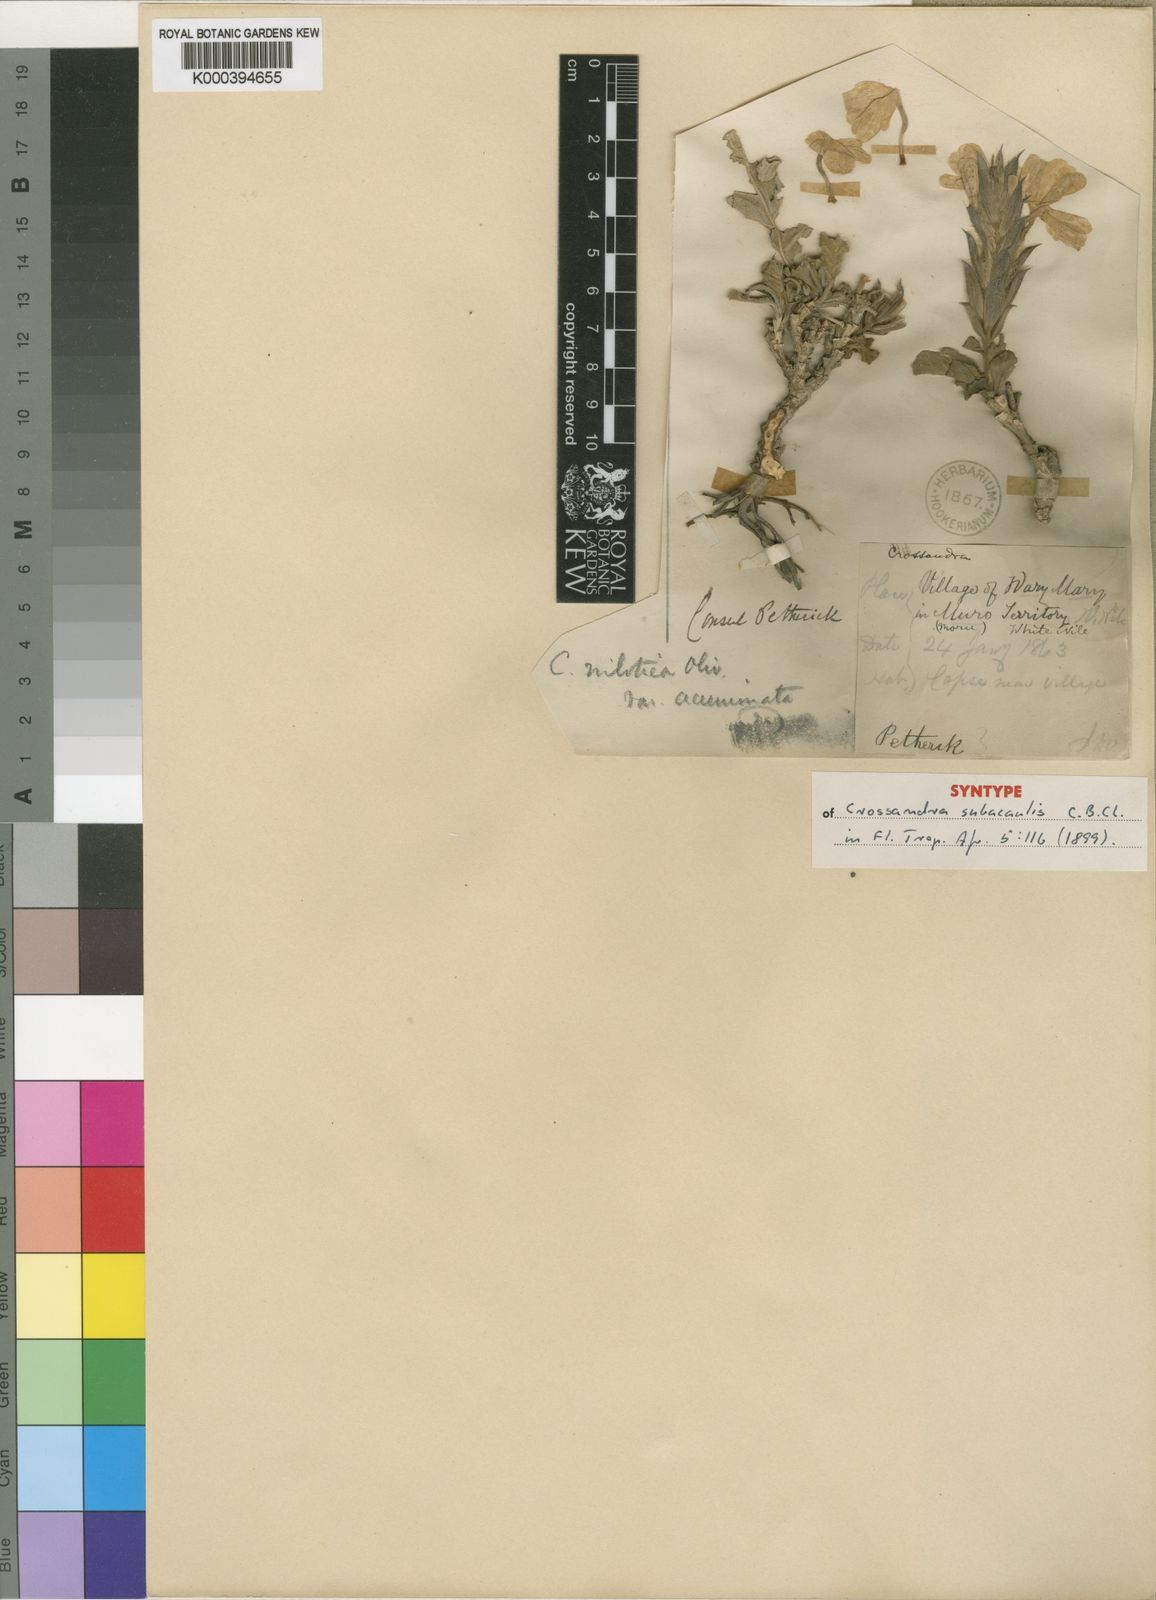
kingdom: Plantae
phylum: Tracheophyta
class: Magnoliopsida
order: Lamiales
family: Acanthaceae
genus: Crossandra
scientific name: Crossandra subacaulis
